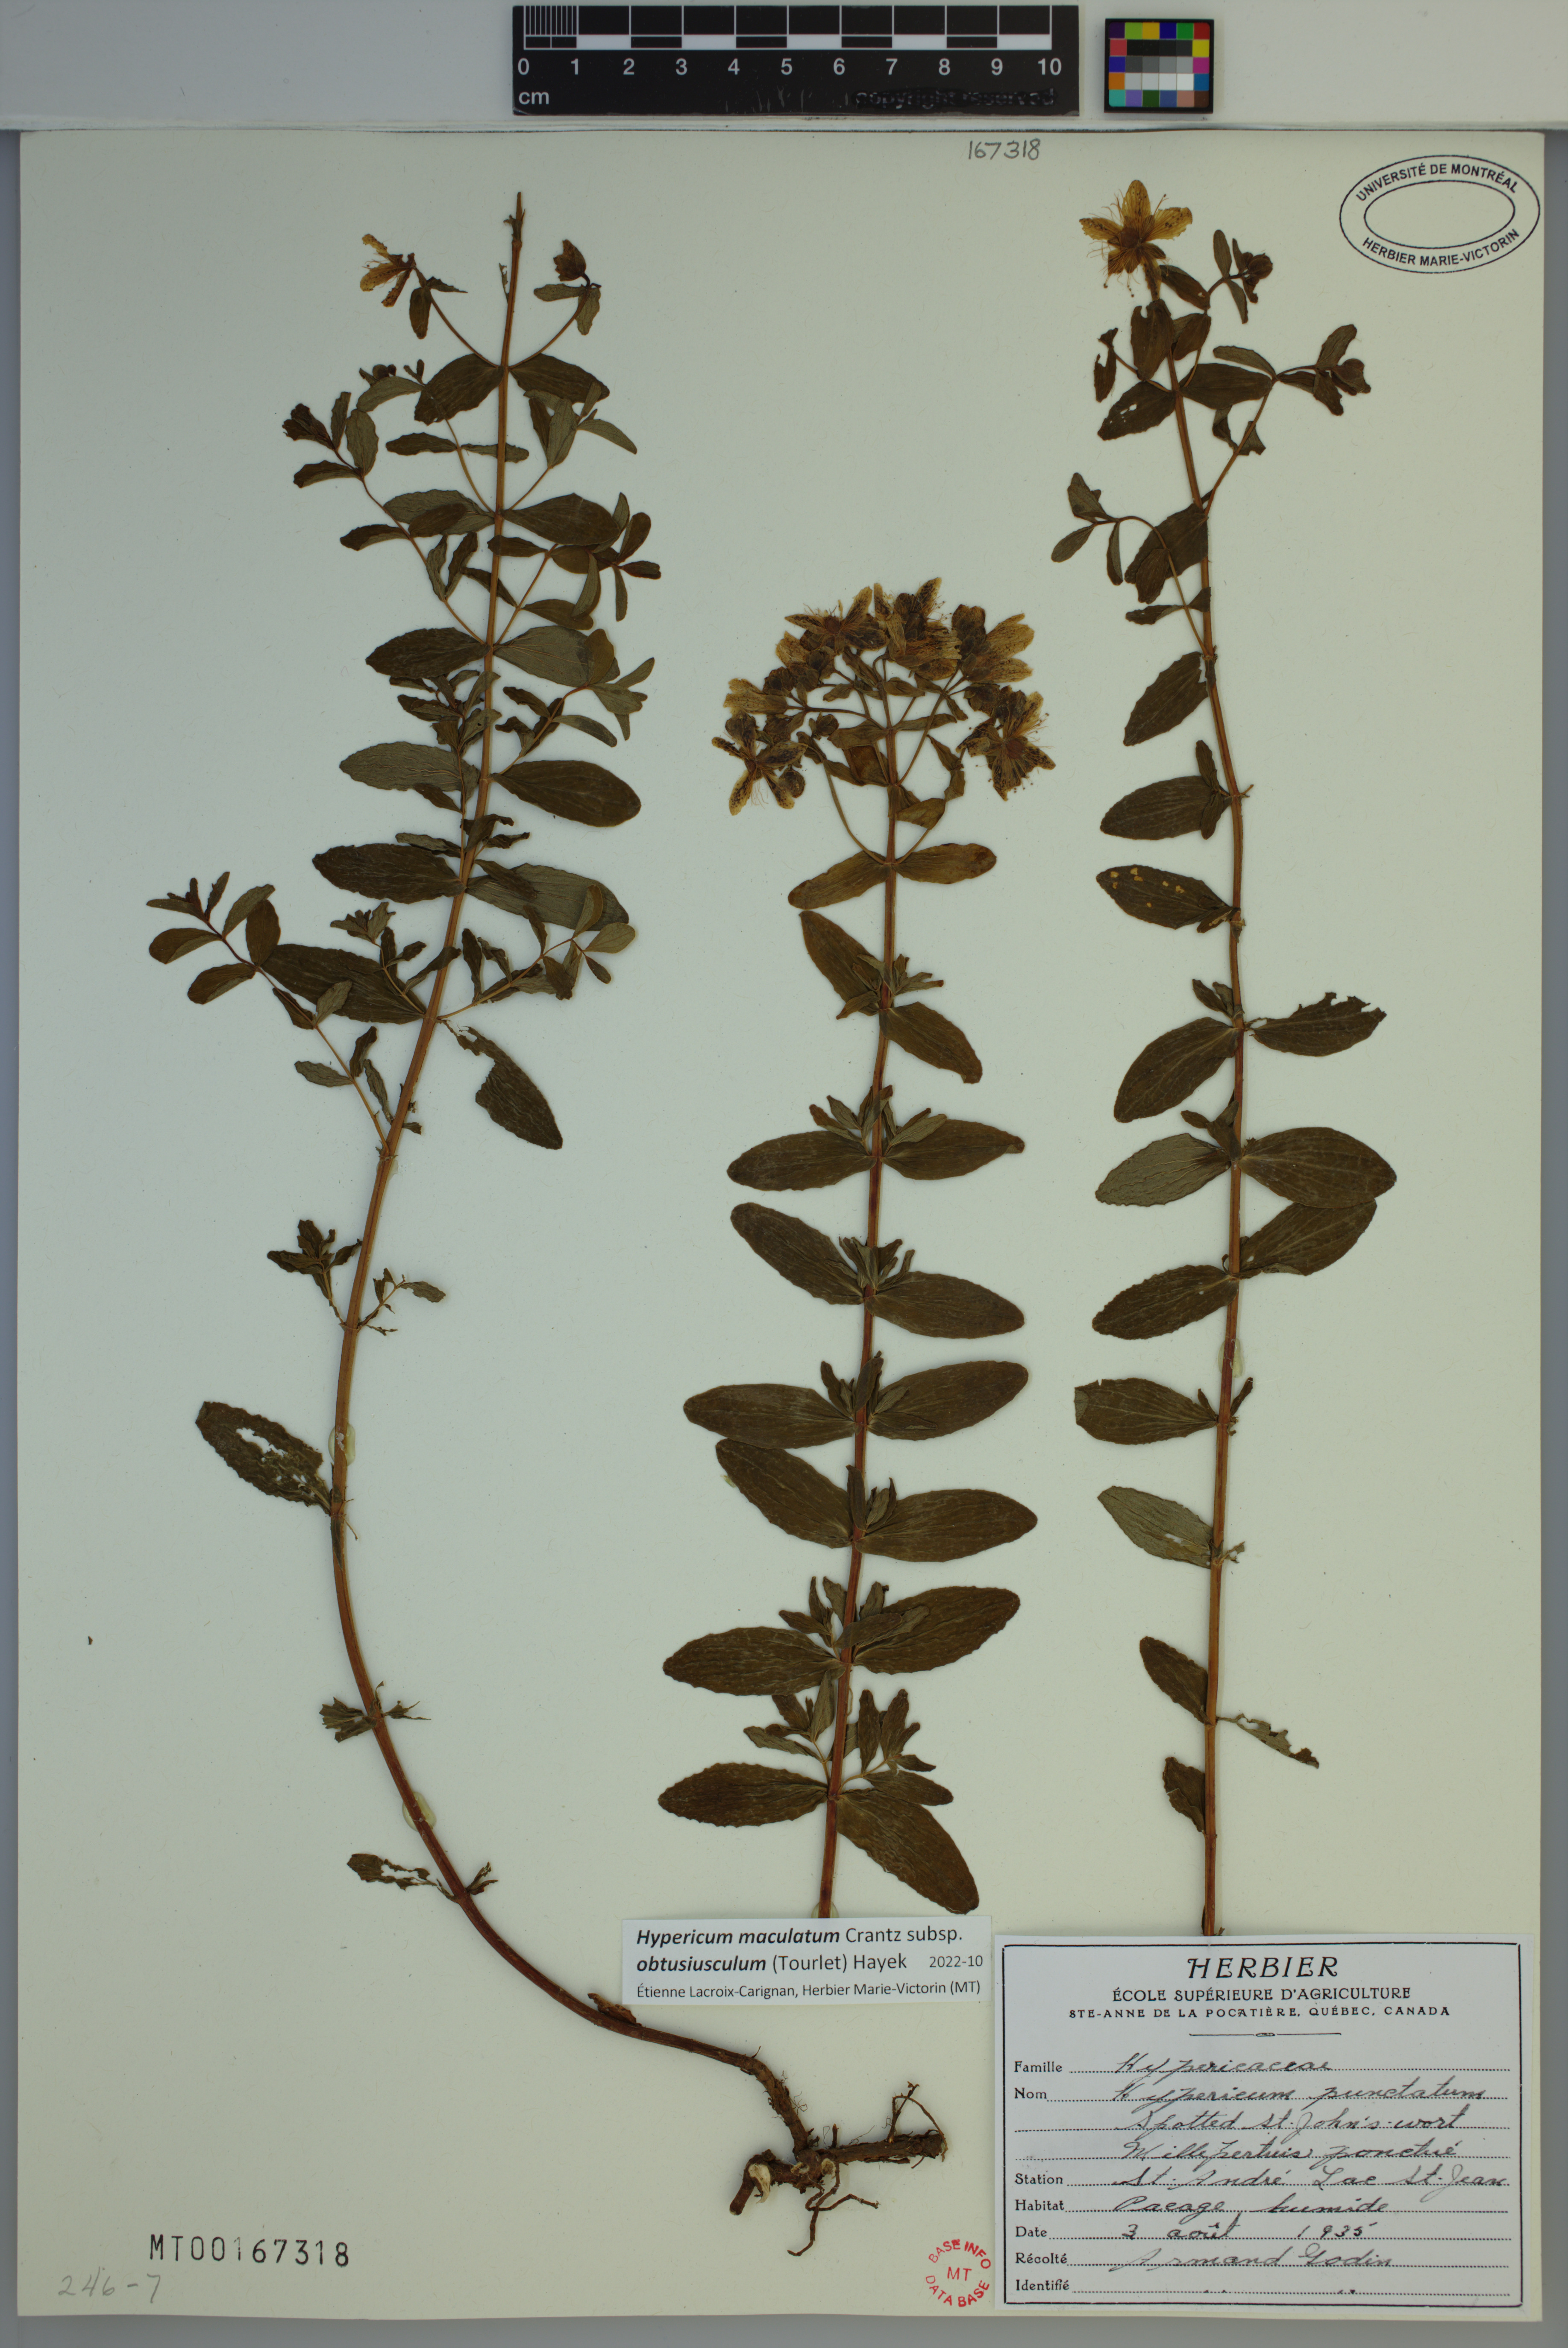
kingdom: Plantae
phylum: Tracheophyta
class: Magnoliopsida
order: Malpighiales
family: Hypericaceae
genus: Hypericum
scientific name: Hypericum dubium
